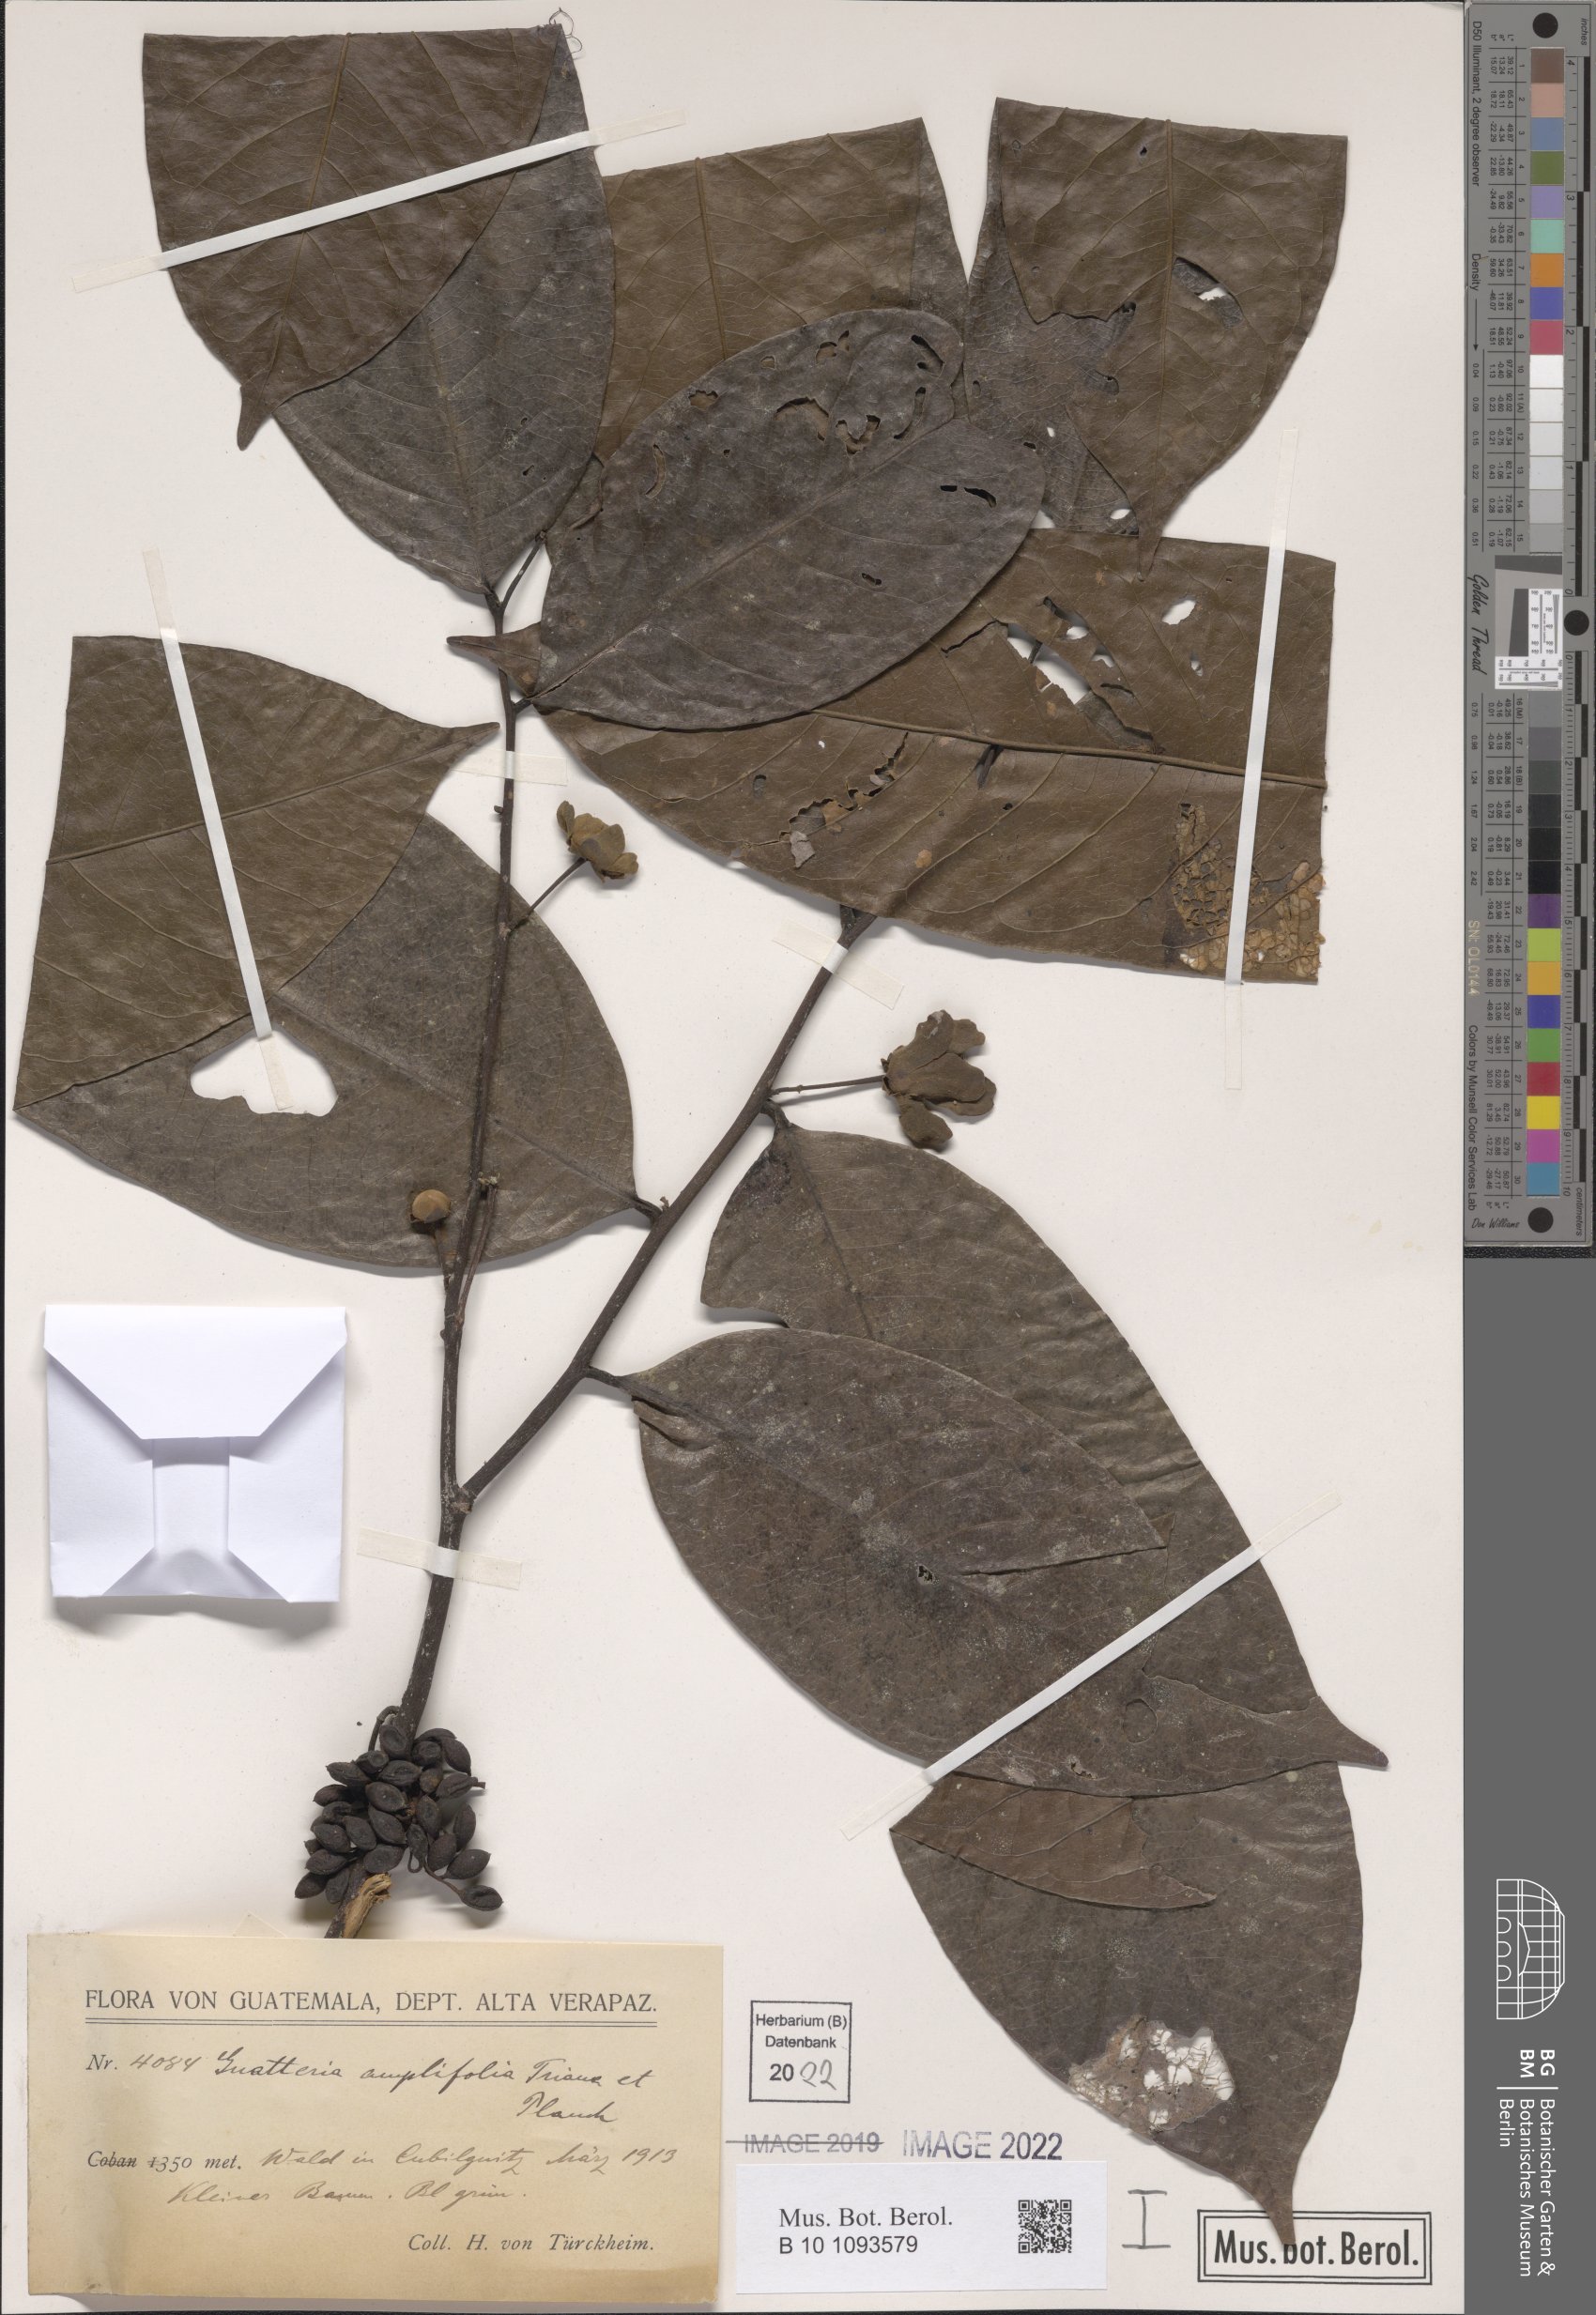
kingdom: Plantae
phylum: Tracheophyta
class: Magnoliopsida
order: Magnoliales
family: Annonaceae
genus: Guatteria
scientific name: Guatteria amplifolia
